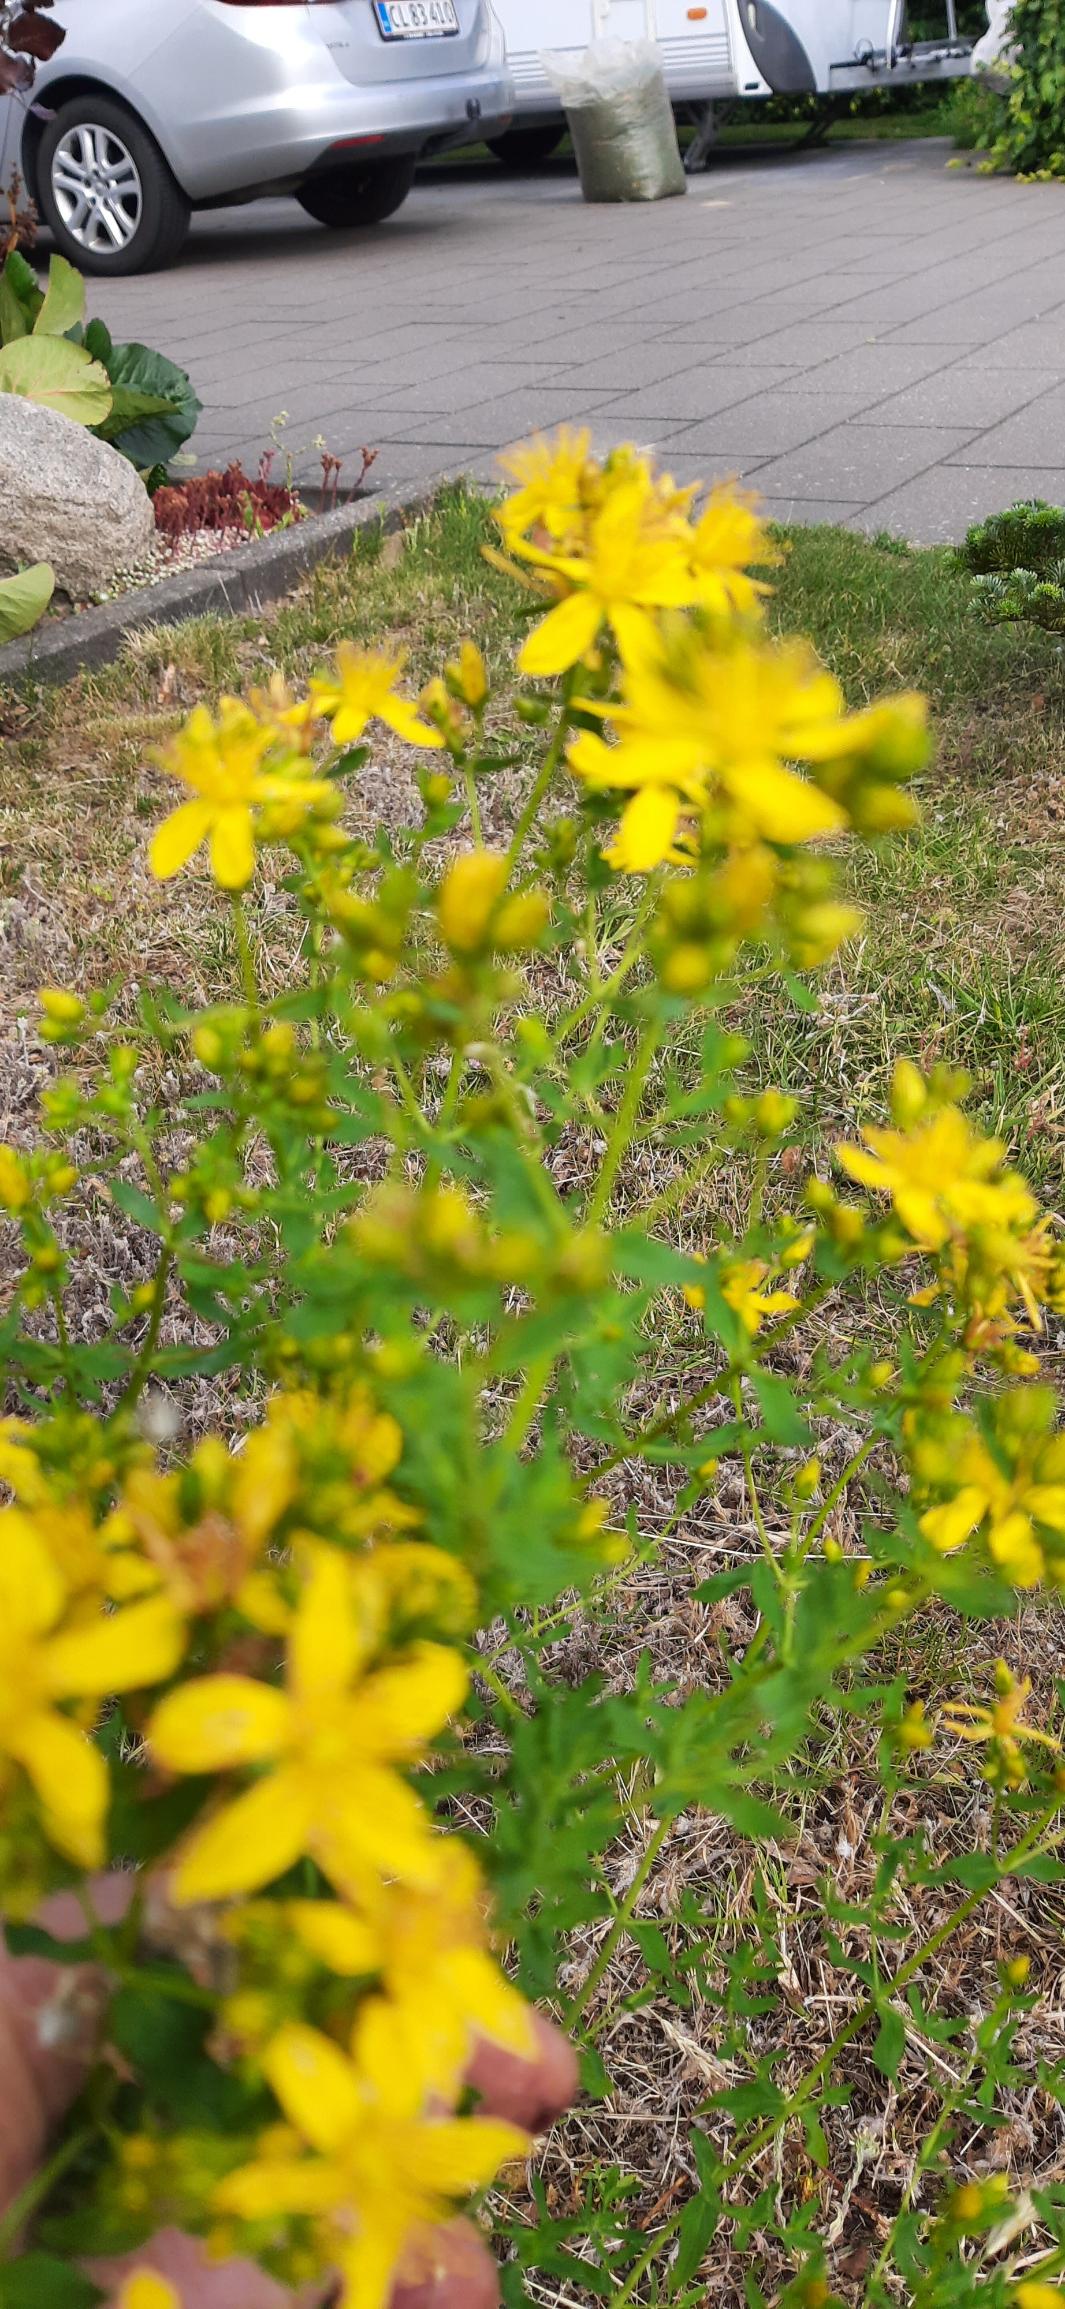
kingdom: Plantae
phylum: Tracheophyta
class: Magnoliopsida
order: Malpighiales
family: Hypericaceae
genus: Hypericum
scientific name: Hypericum
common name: Perikonslægten
